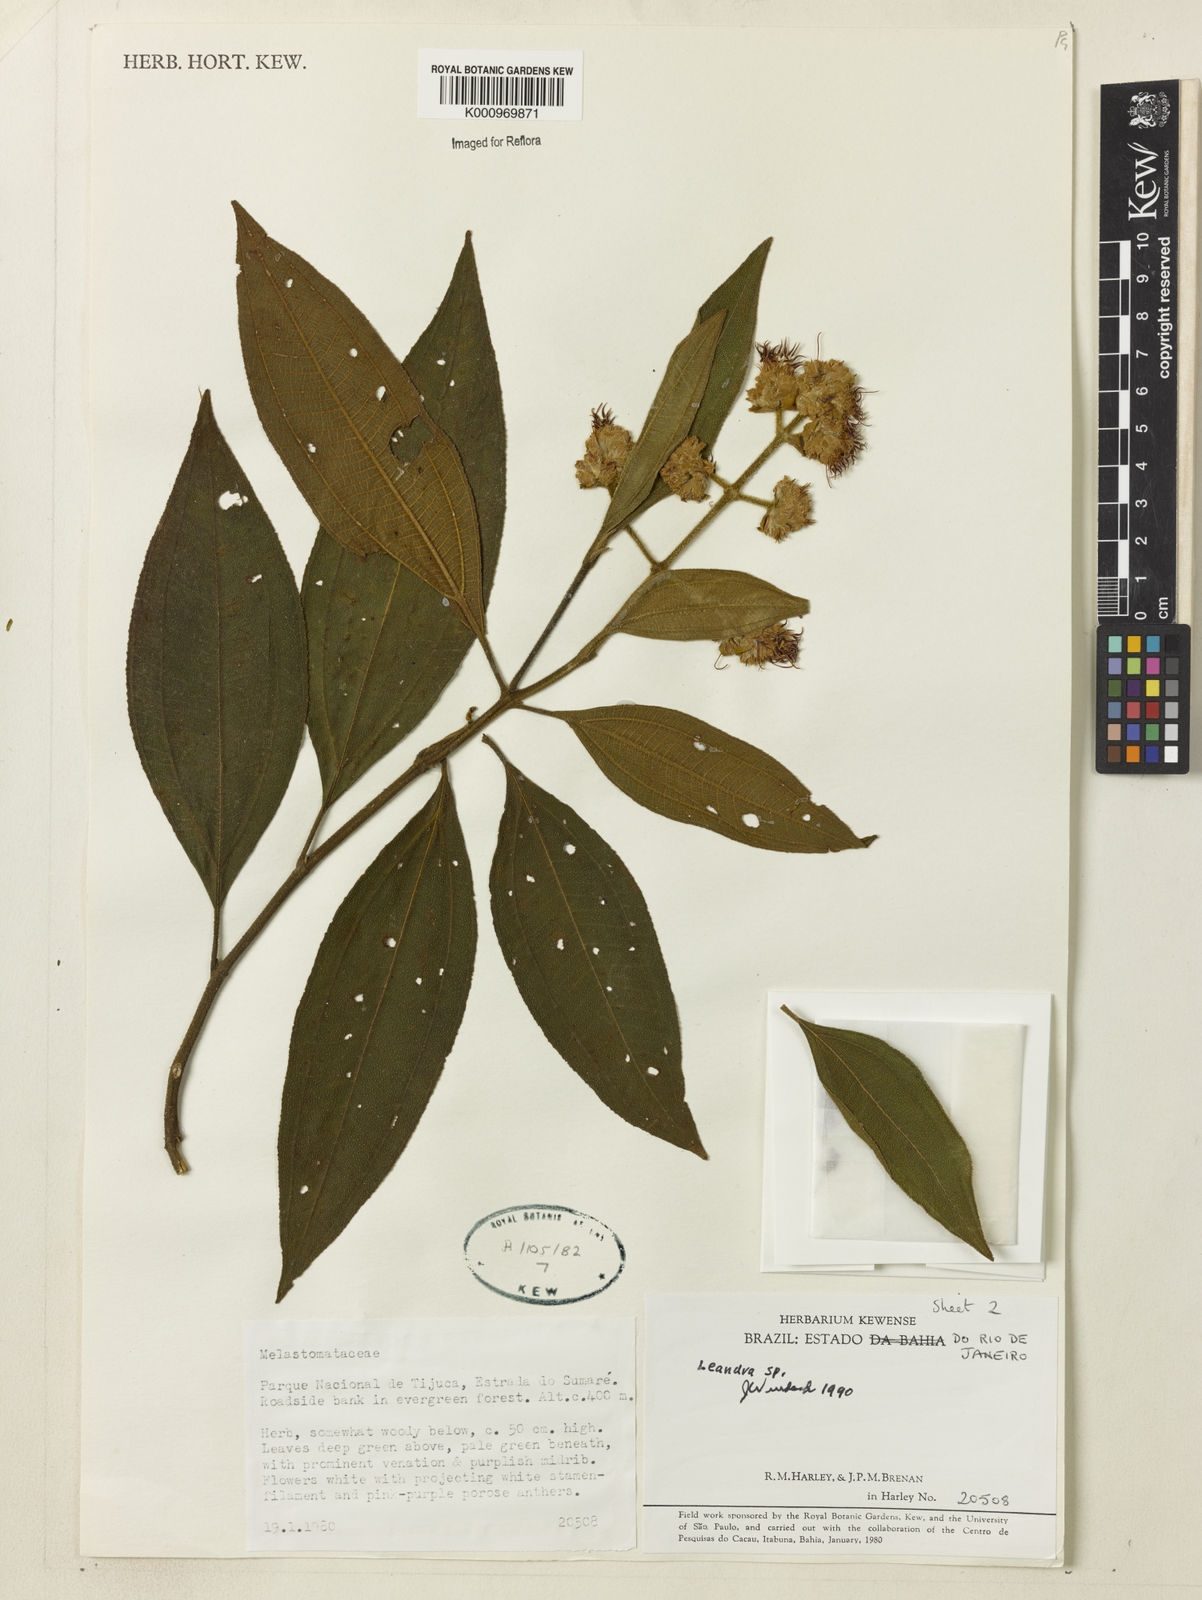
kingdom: Plantae
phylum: Tracheophyta
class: Magnoliopsida
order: Myrtales
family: Melastomataceae
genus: Miconia
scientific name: Miconia
